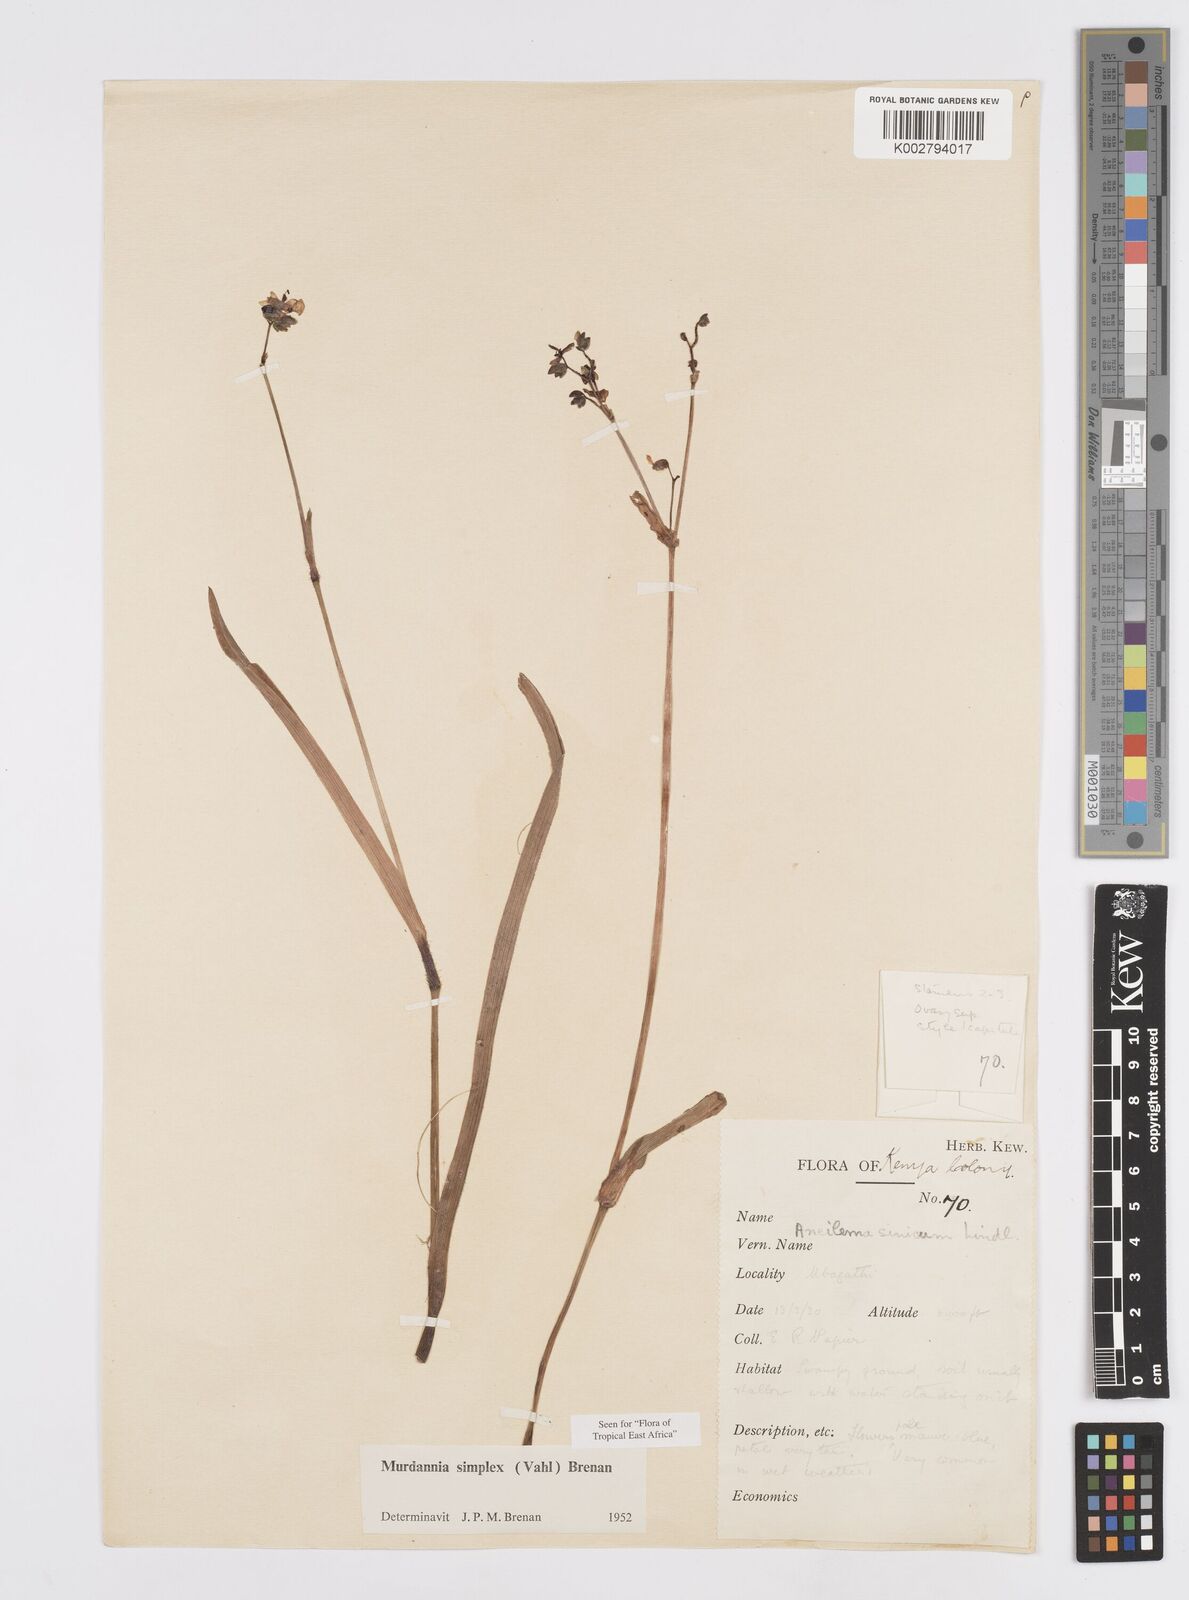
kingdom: Plantae
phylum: Tracheophyta
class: Liliopsida
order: Commelinales
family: Commelinaceae
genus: Murdannia
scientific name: Murdannia simplex
